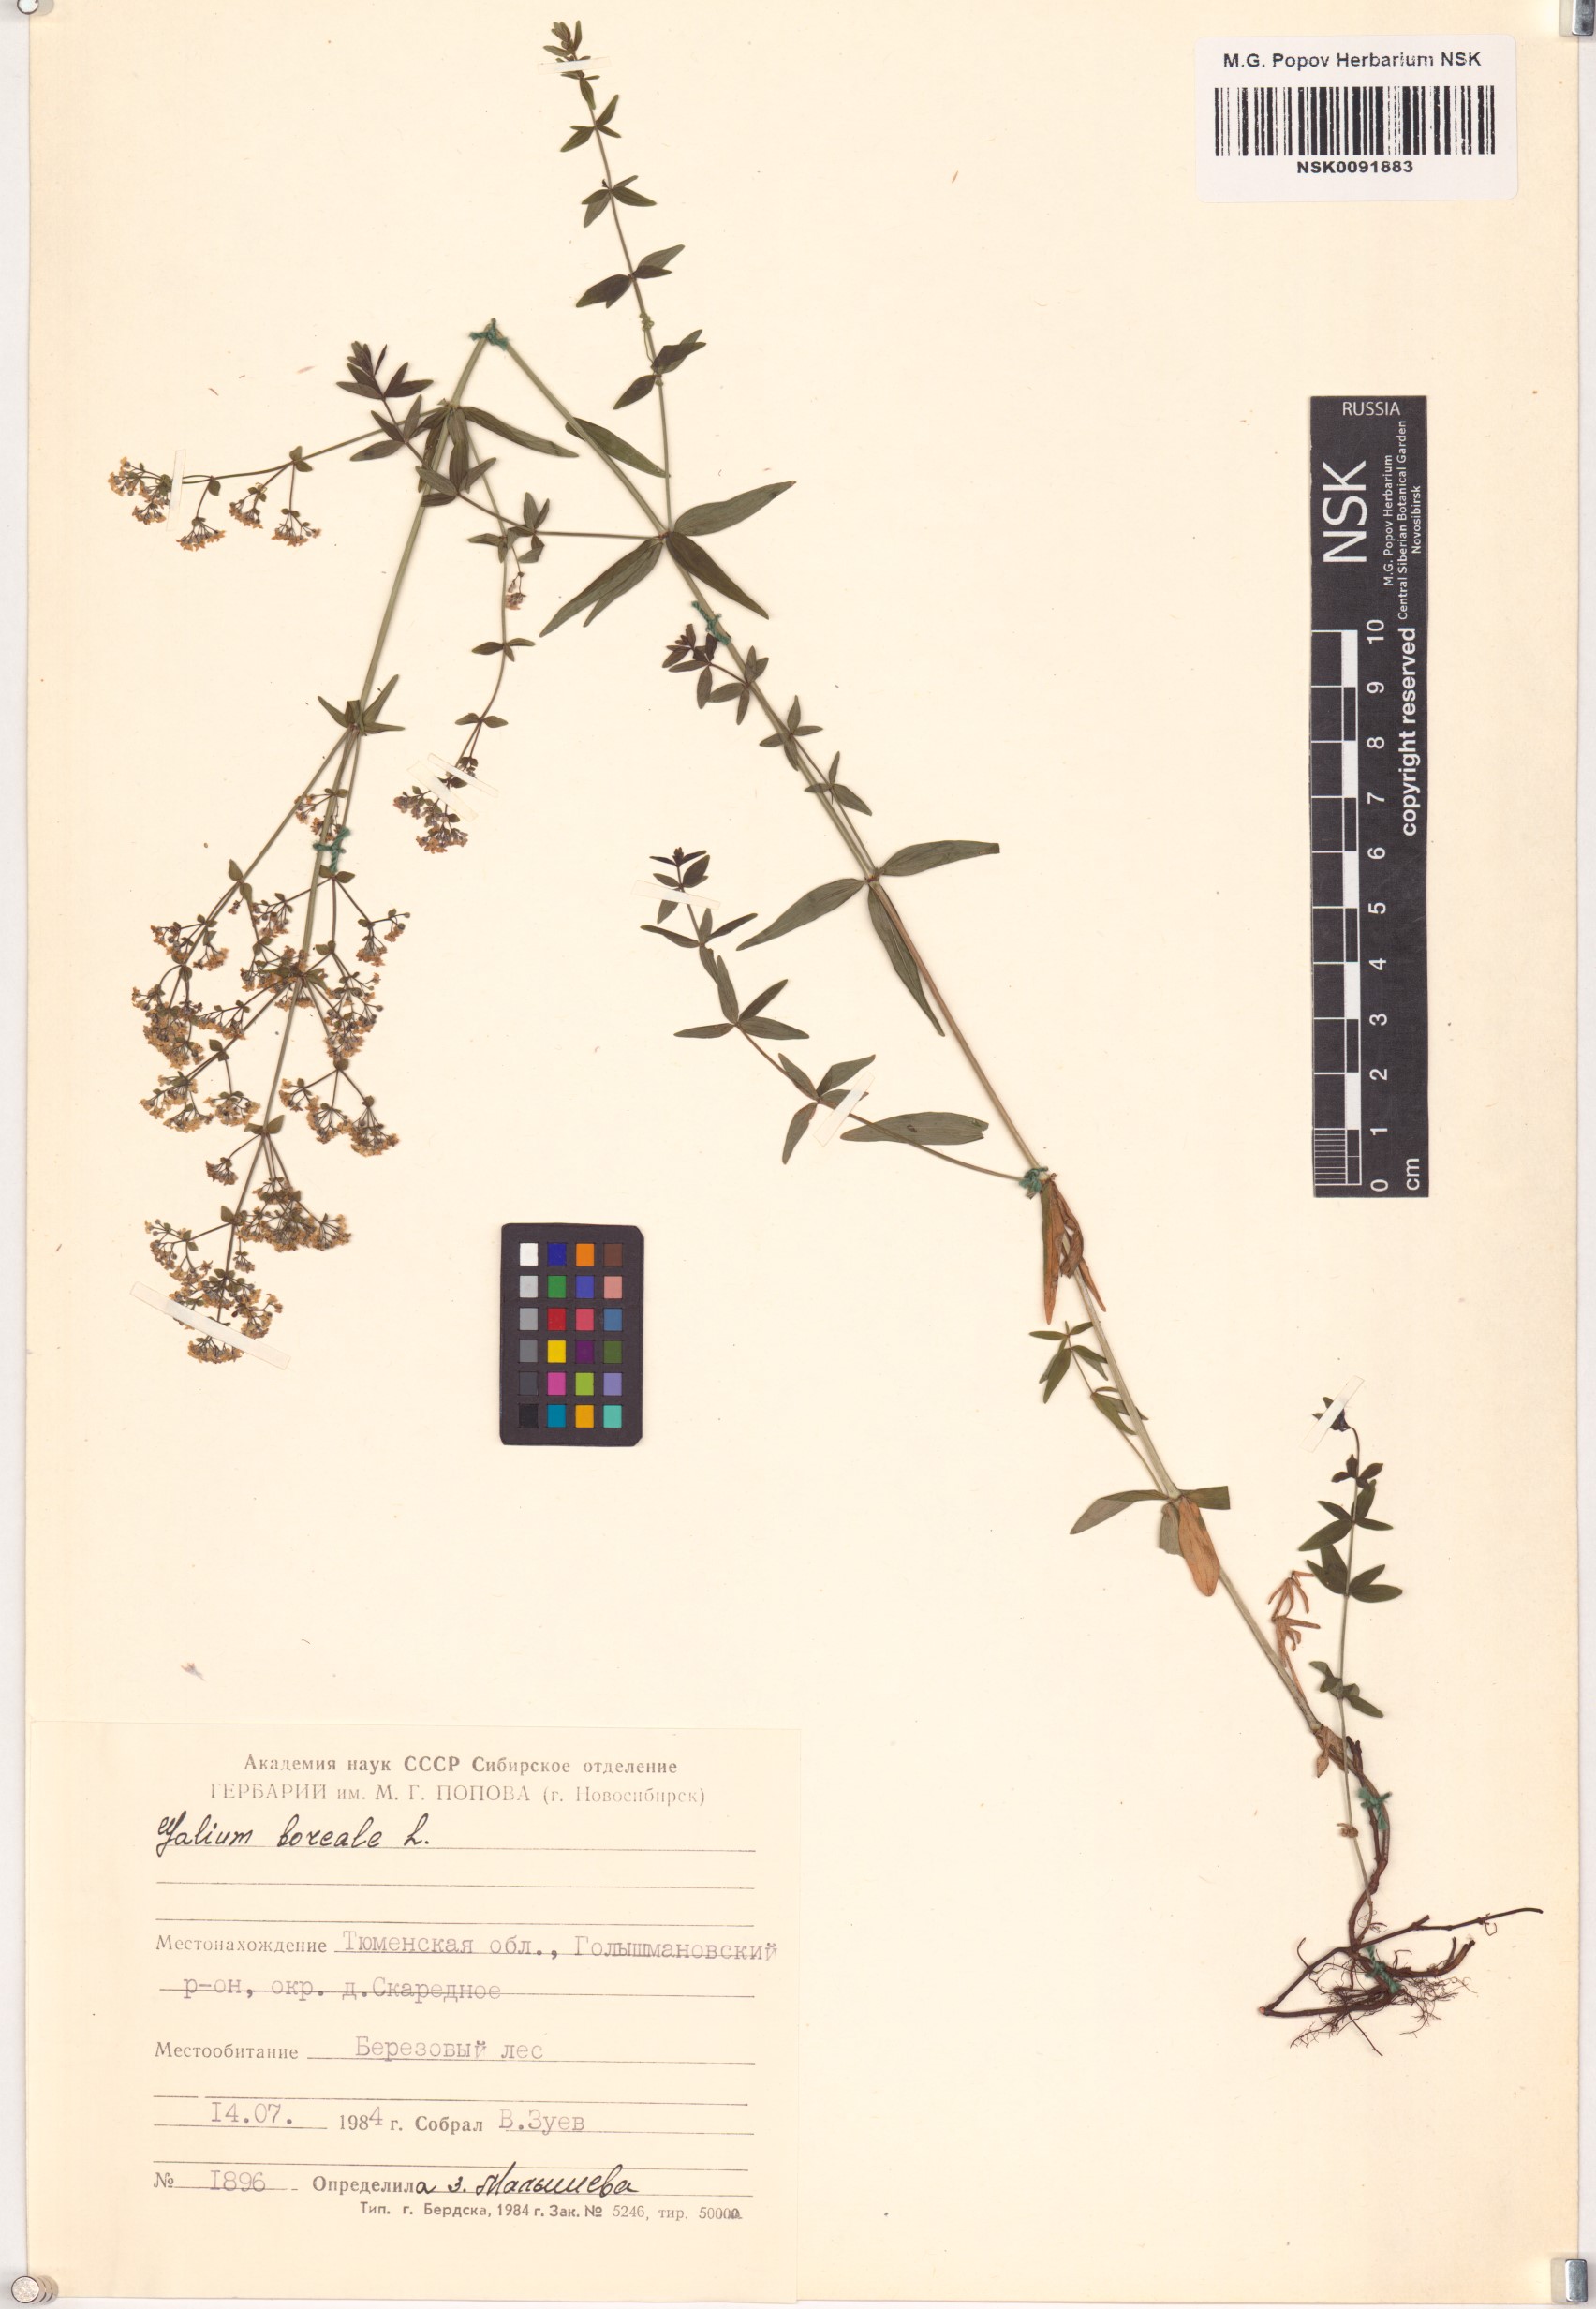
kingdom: Plantae
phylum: Tracheophyta
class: Magnoliopsida
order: Gentianales
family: Rubiaceae
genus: Galium
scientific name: Galium boreale
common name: Northern bedstraw
